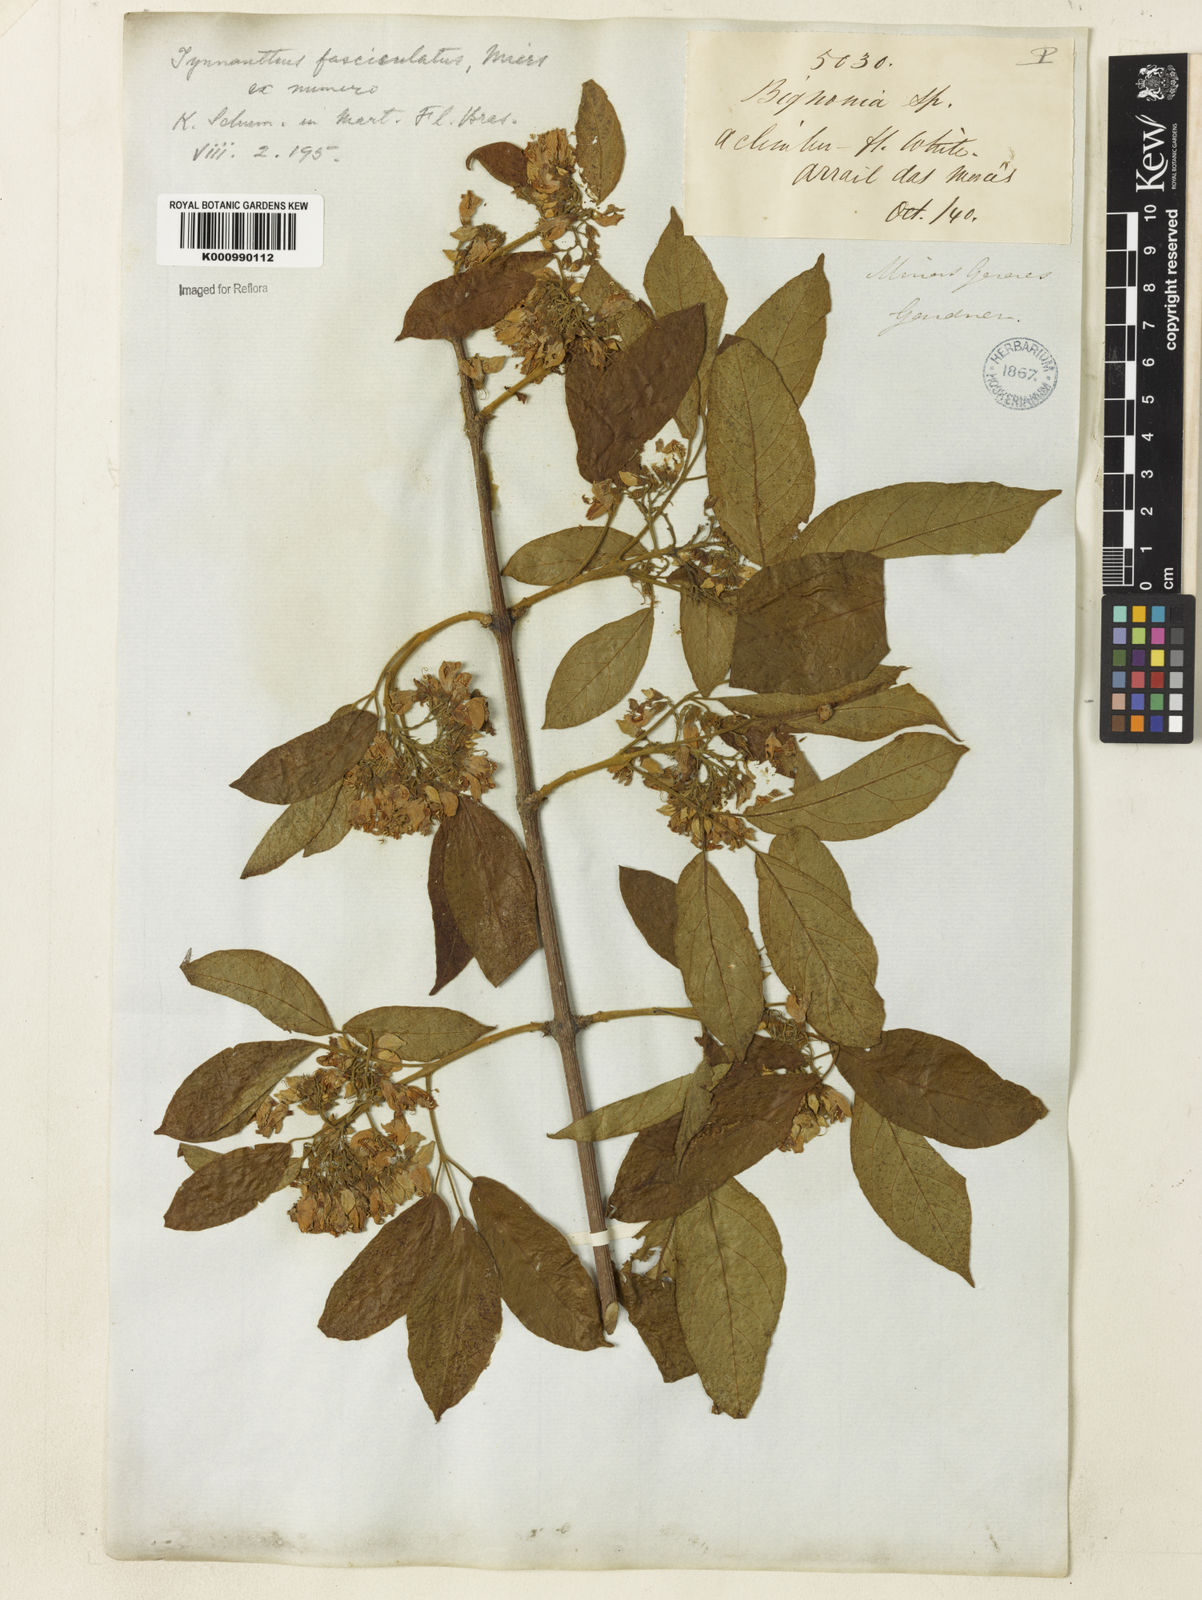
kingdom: Plantae
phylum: Tracheophyta
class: Magnoliopsida
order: Lamiales
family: Bignoniaceae
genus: Tynanthus
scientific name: Tynanthus fasciculatus
